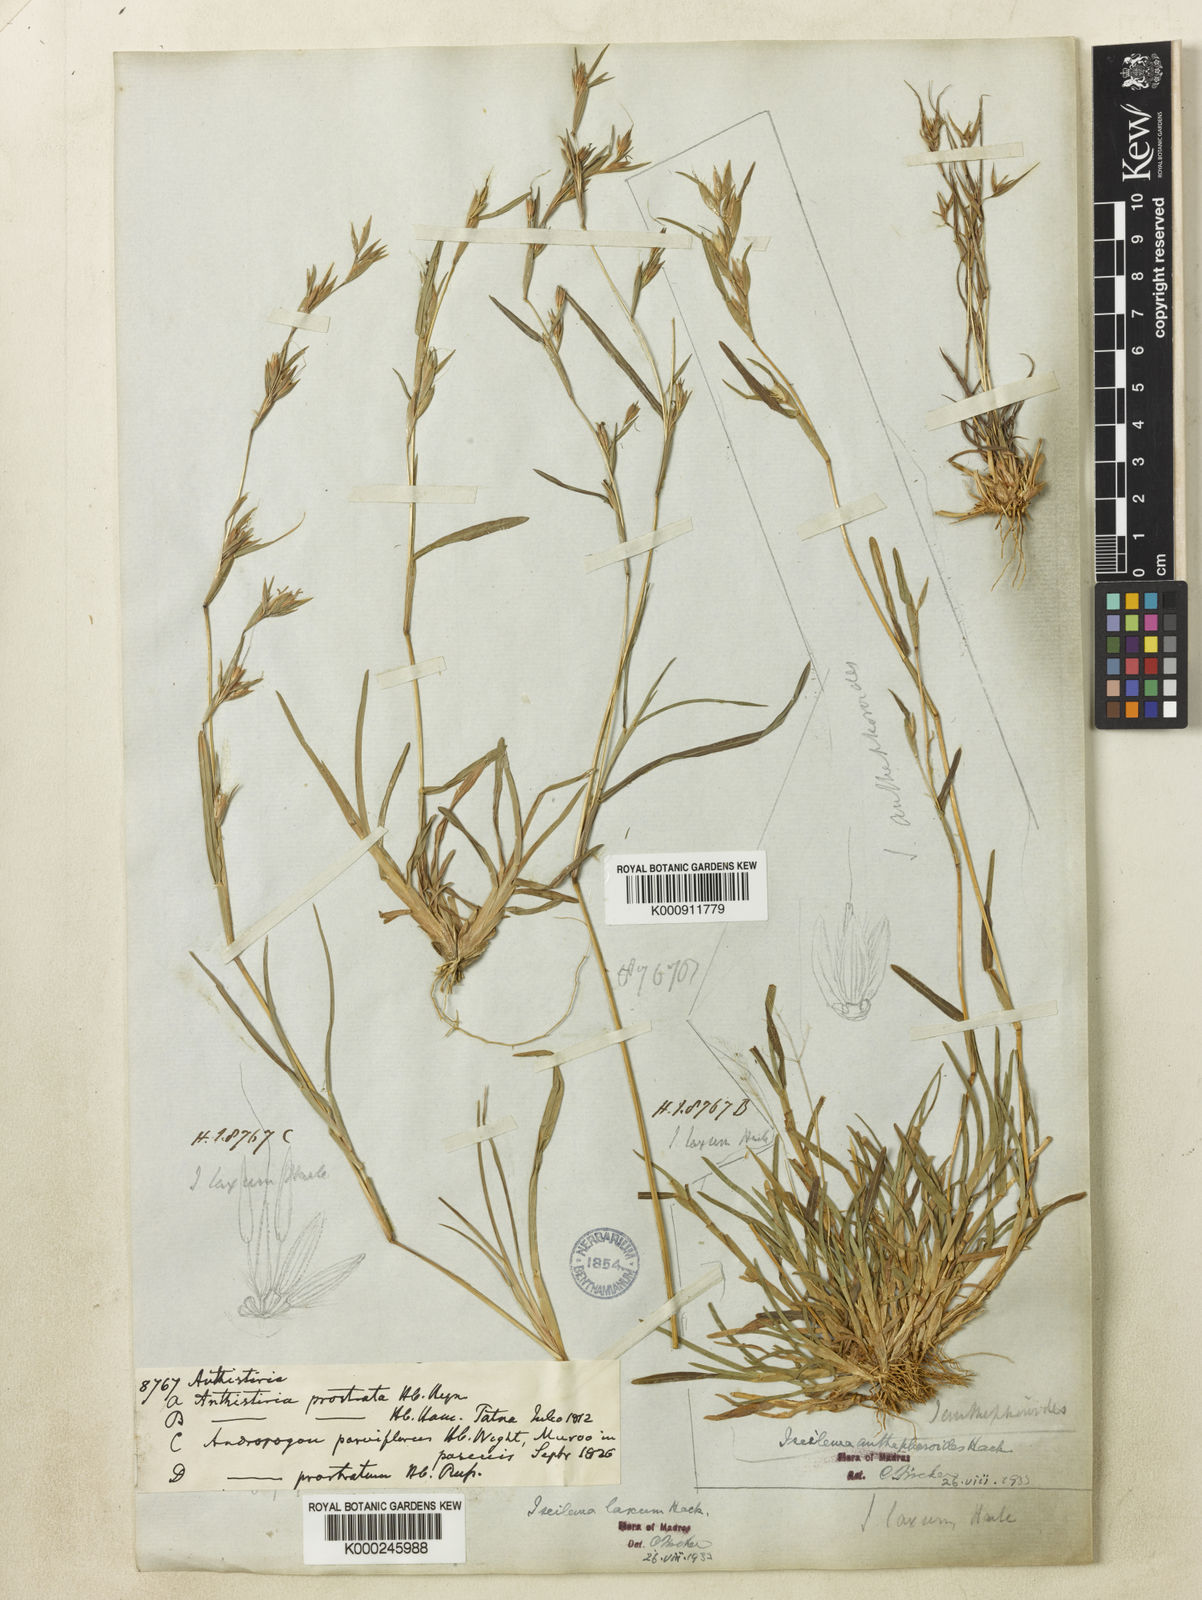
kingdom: Plantae
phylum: Tracheophyta
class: Liliopsida
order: Poales
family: Poaceae
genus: Iseilema
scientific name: Iseilema prostratum
